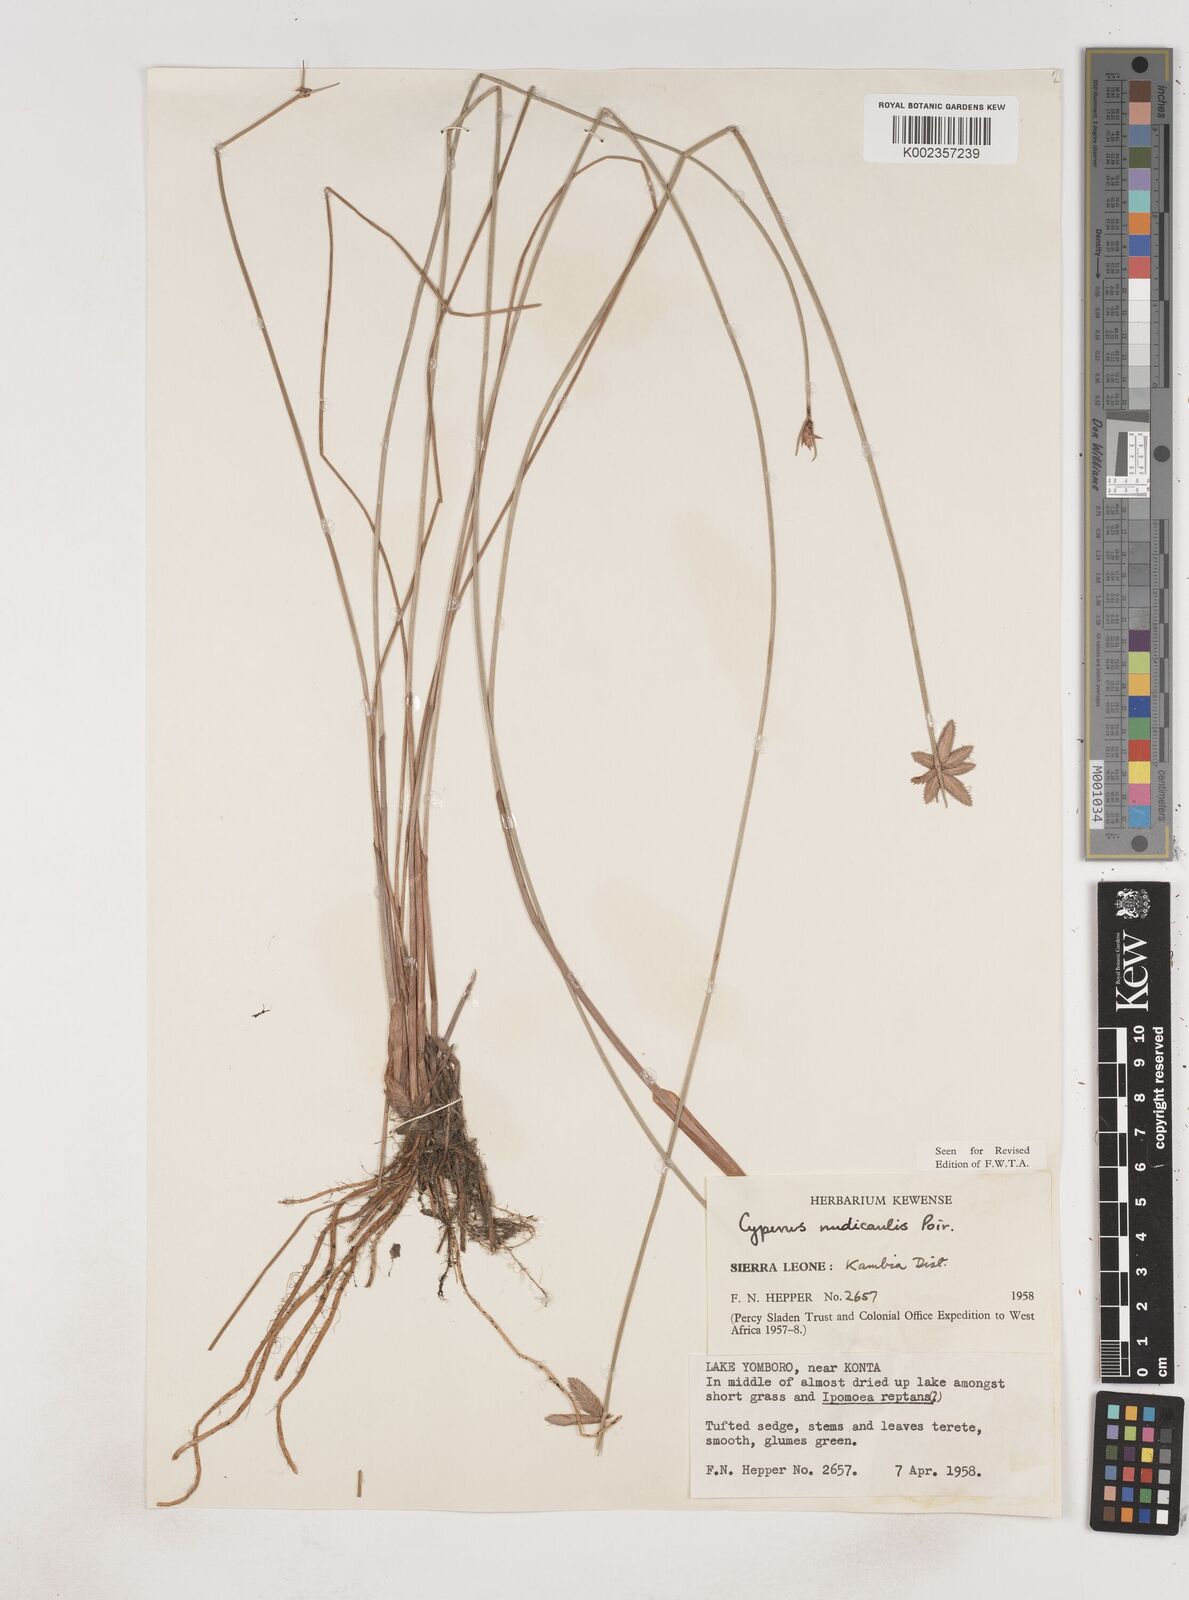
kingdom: Plantae
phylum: Tracheophyta
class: Liliopsida
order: Poales
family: Cyperaceae
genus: Cyperus
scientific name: Cyperus pectinatus
